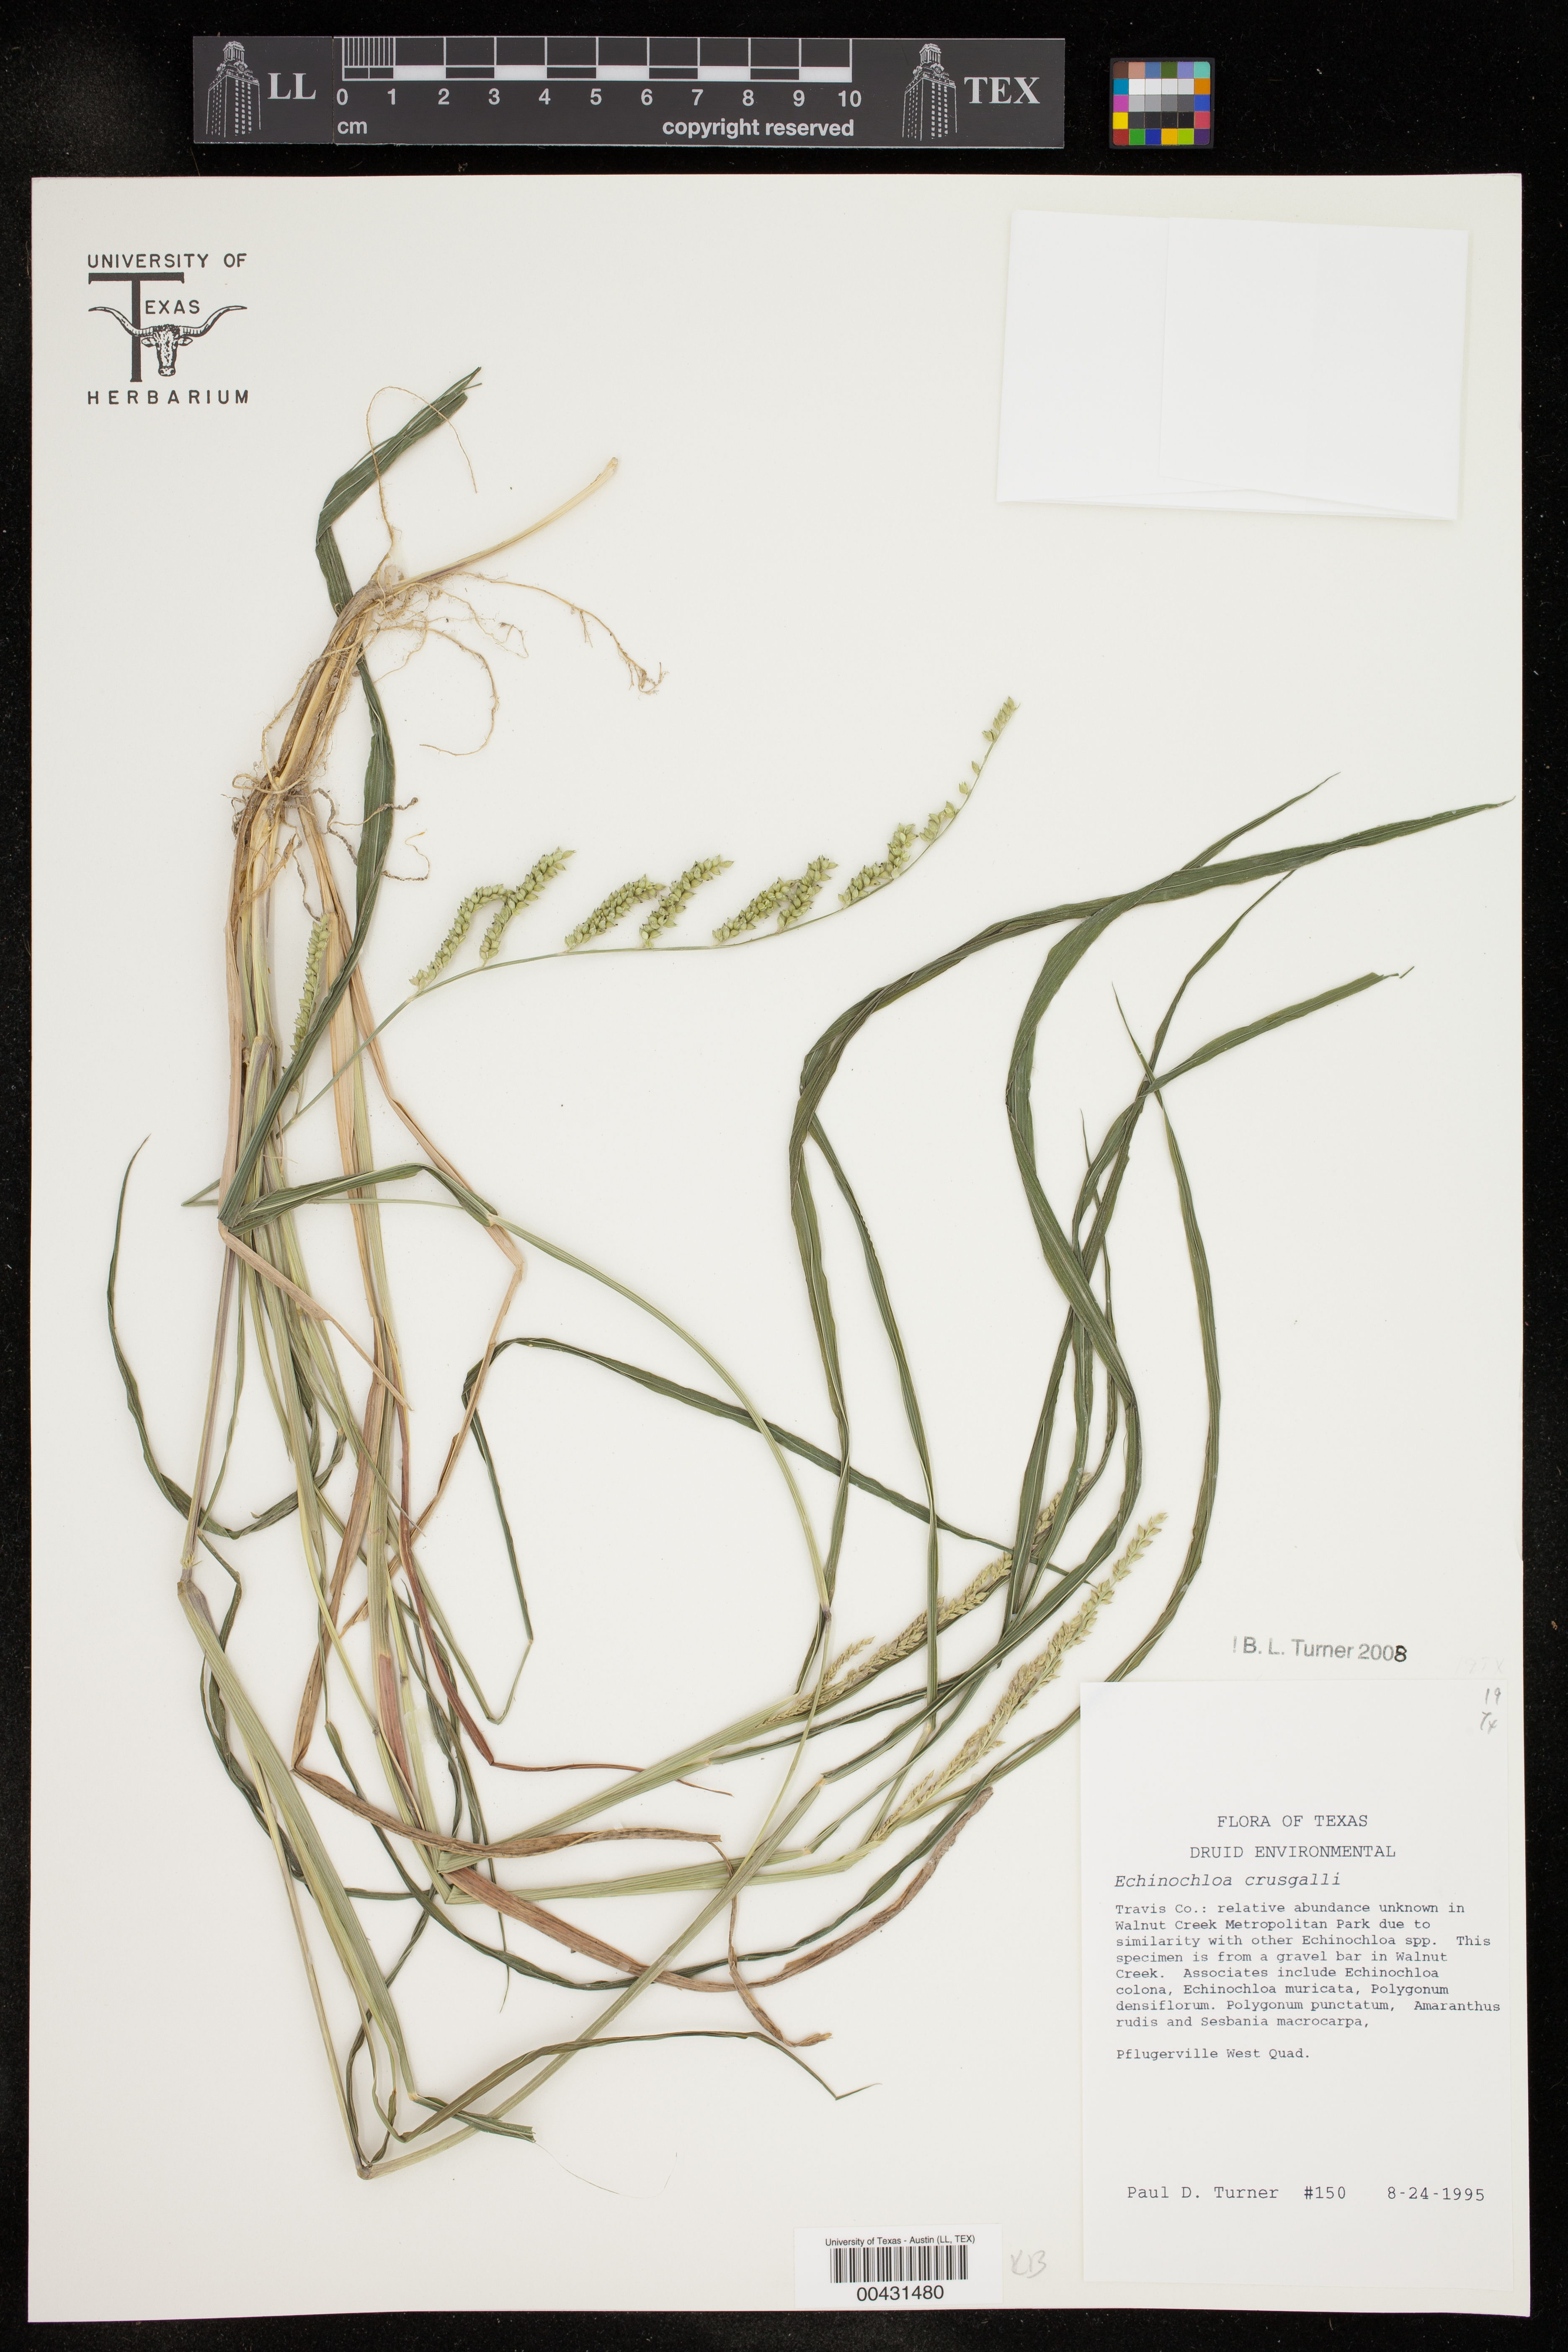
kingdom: Plantae
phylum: Tracheophyta
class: Liliopsida
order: Poales
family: Poaceae
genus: Echinochloa
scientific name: Echinochloa crus-galli
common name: Cockspur
